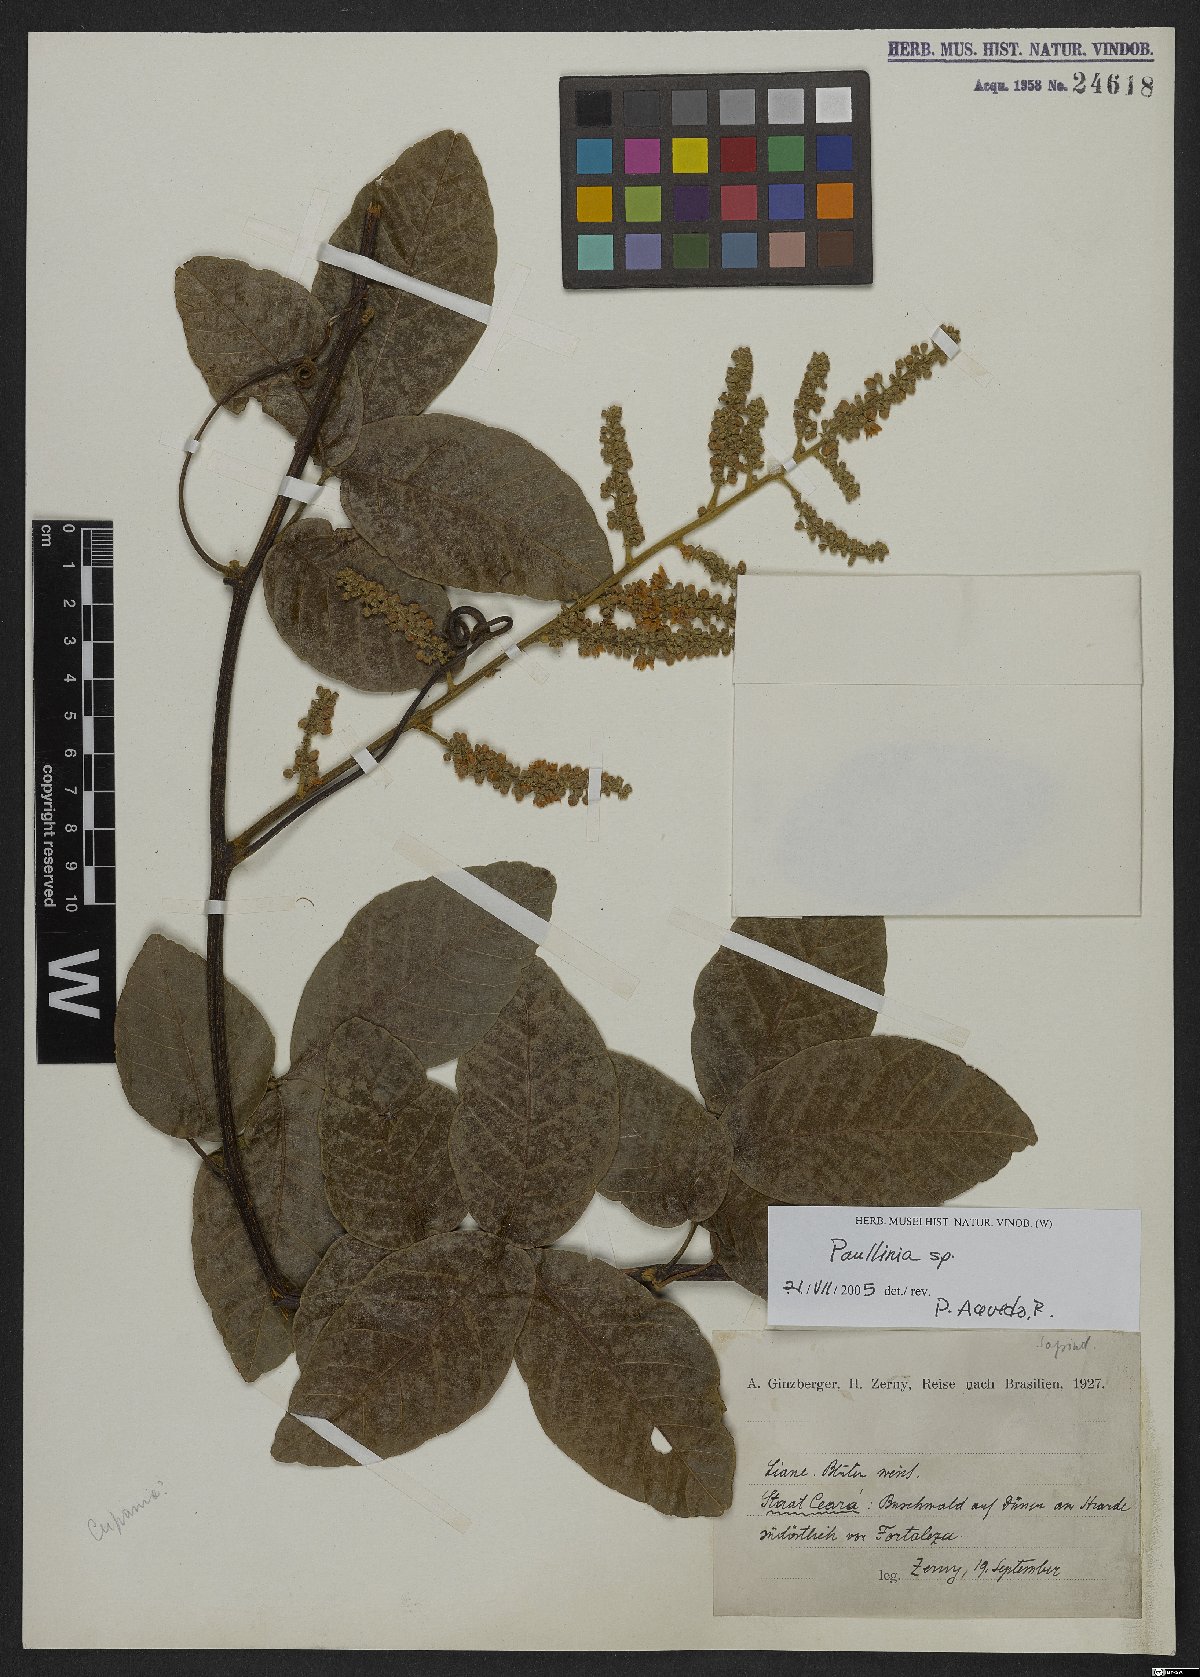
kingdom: Plantae
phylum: Tracheophyta
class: Magnoliopsida
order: Sapindales
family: Sapindaceae
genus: Paullinia
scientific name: Paullinia
